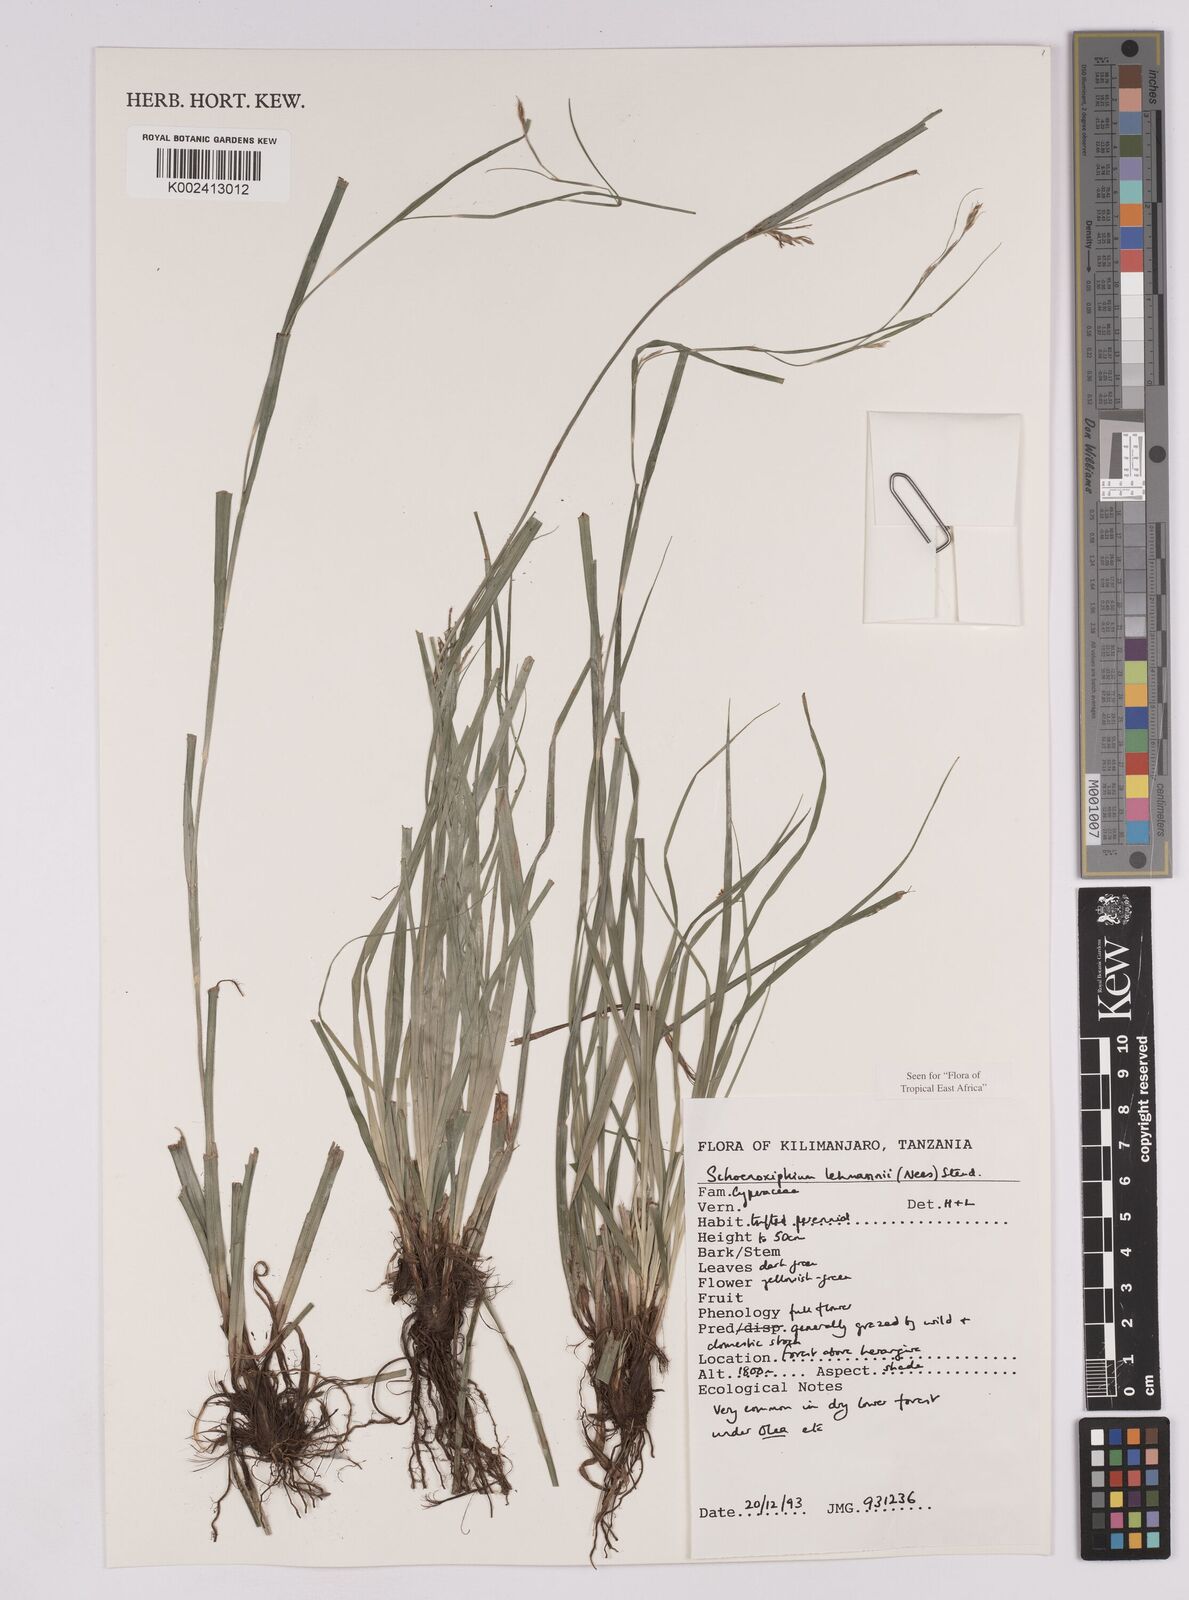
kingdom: Plantae
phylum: Tracheophyta
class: Liliopsida
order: Poales
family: Cyperaceae
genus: Carex
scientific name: Carex uhligii
